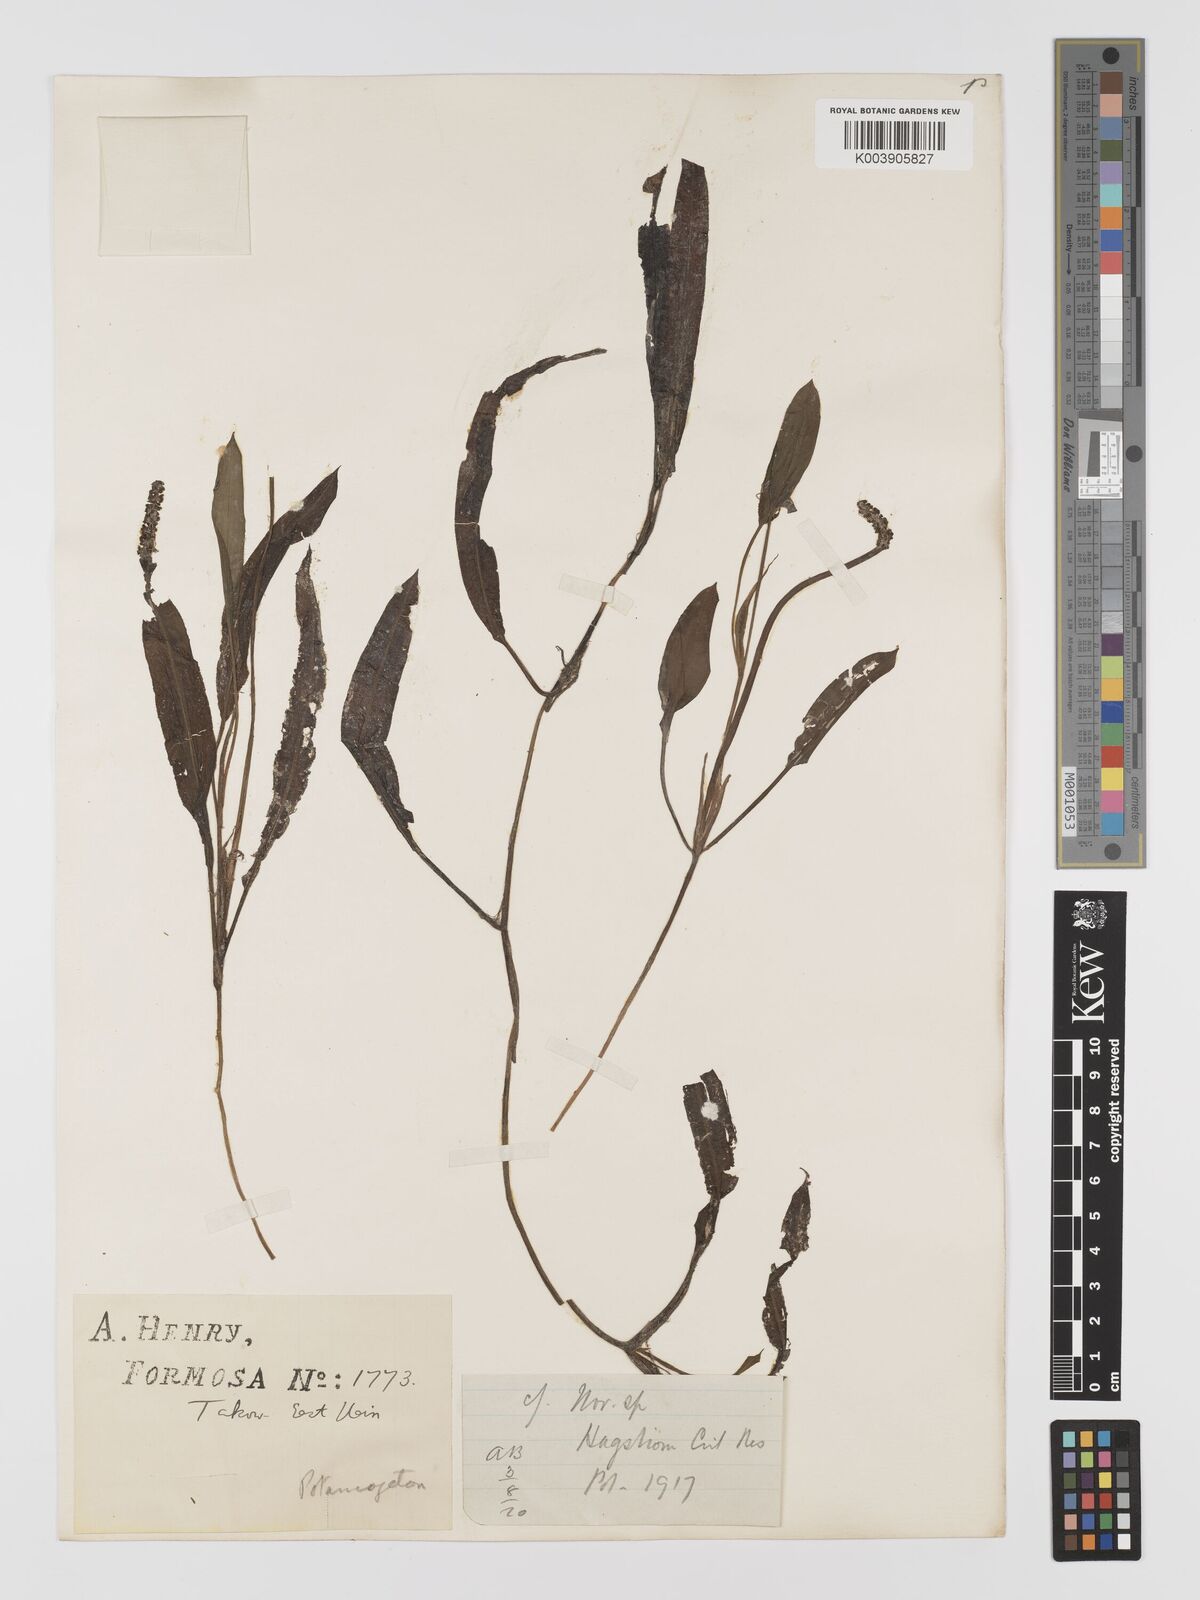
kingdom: Plantae
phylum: Tracheophyta
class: Liliopsida
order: Alismatales
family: Potamogetonaceae
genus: Potamogeton
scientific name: Potamogeton nodosus
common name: Loddon pondweed
